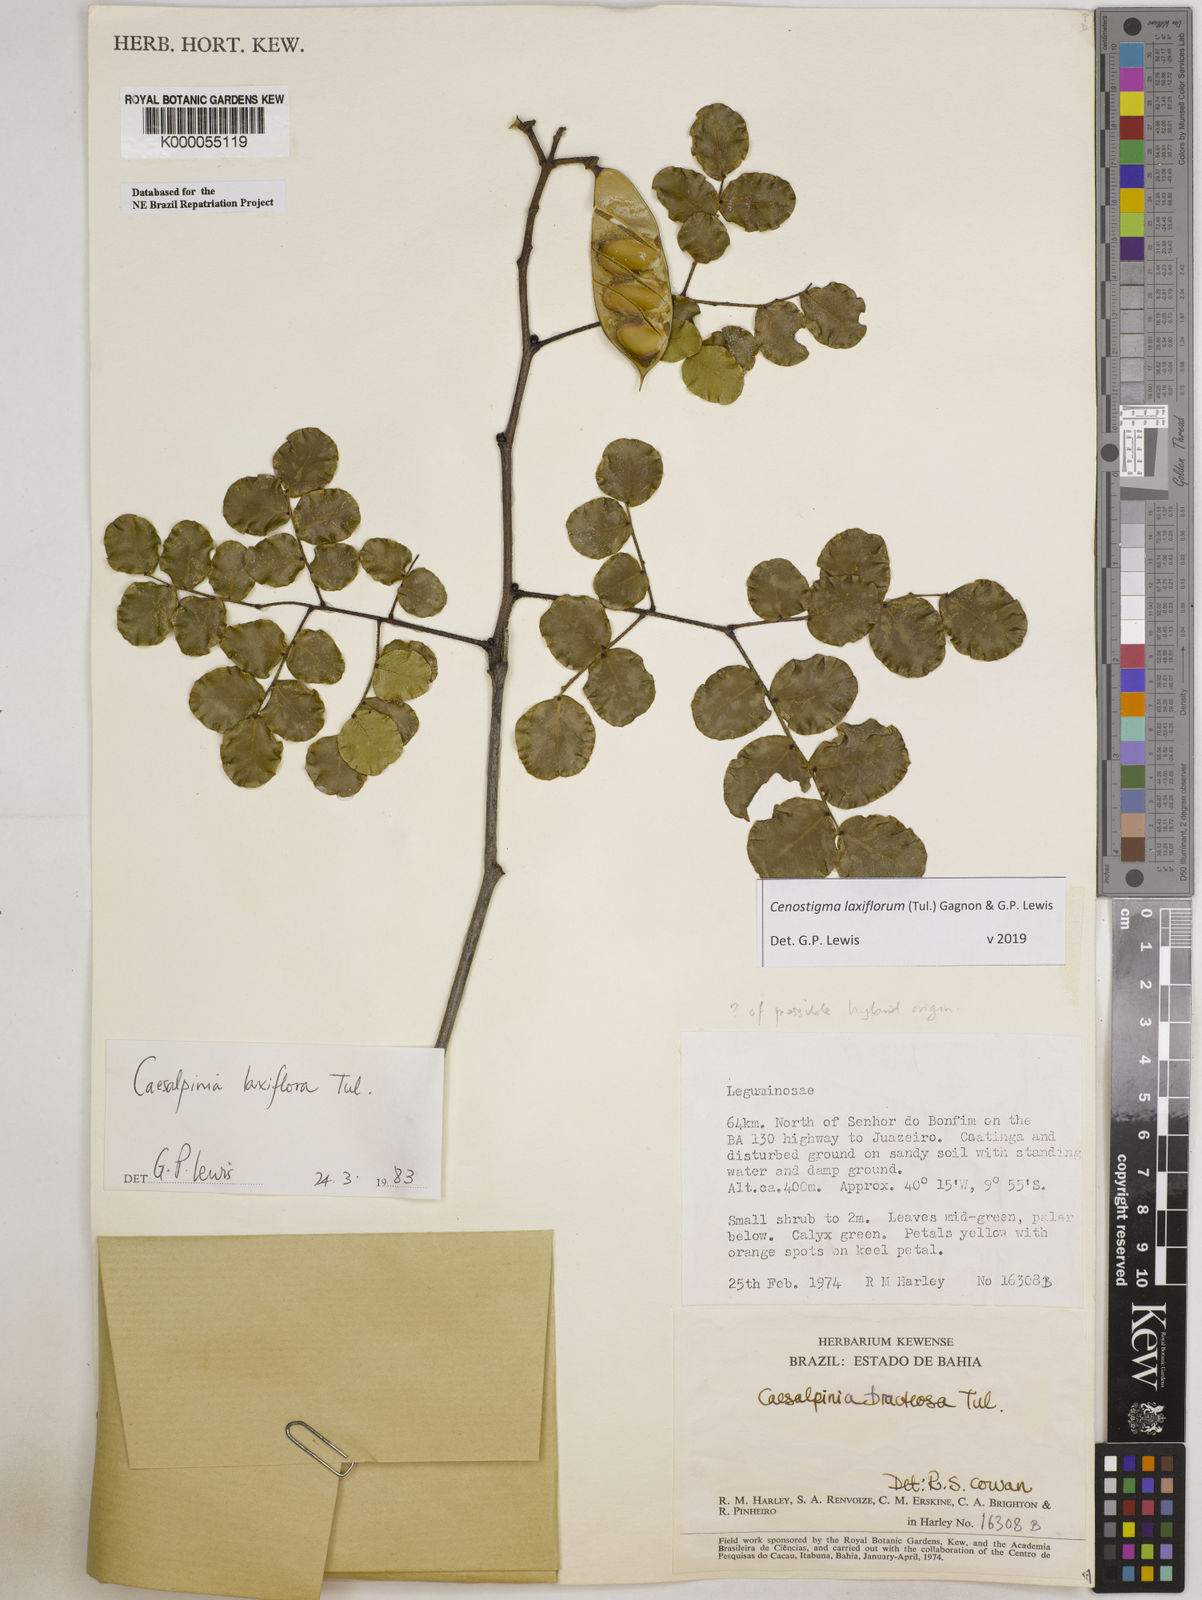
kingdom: Plantae
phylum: Tracheophyta
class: Magnoliopsida
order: Fabales
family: Fabaceae
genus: Cenostigma
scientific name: Cenostigma laxiflorum
